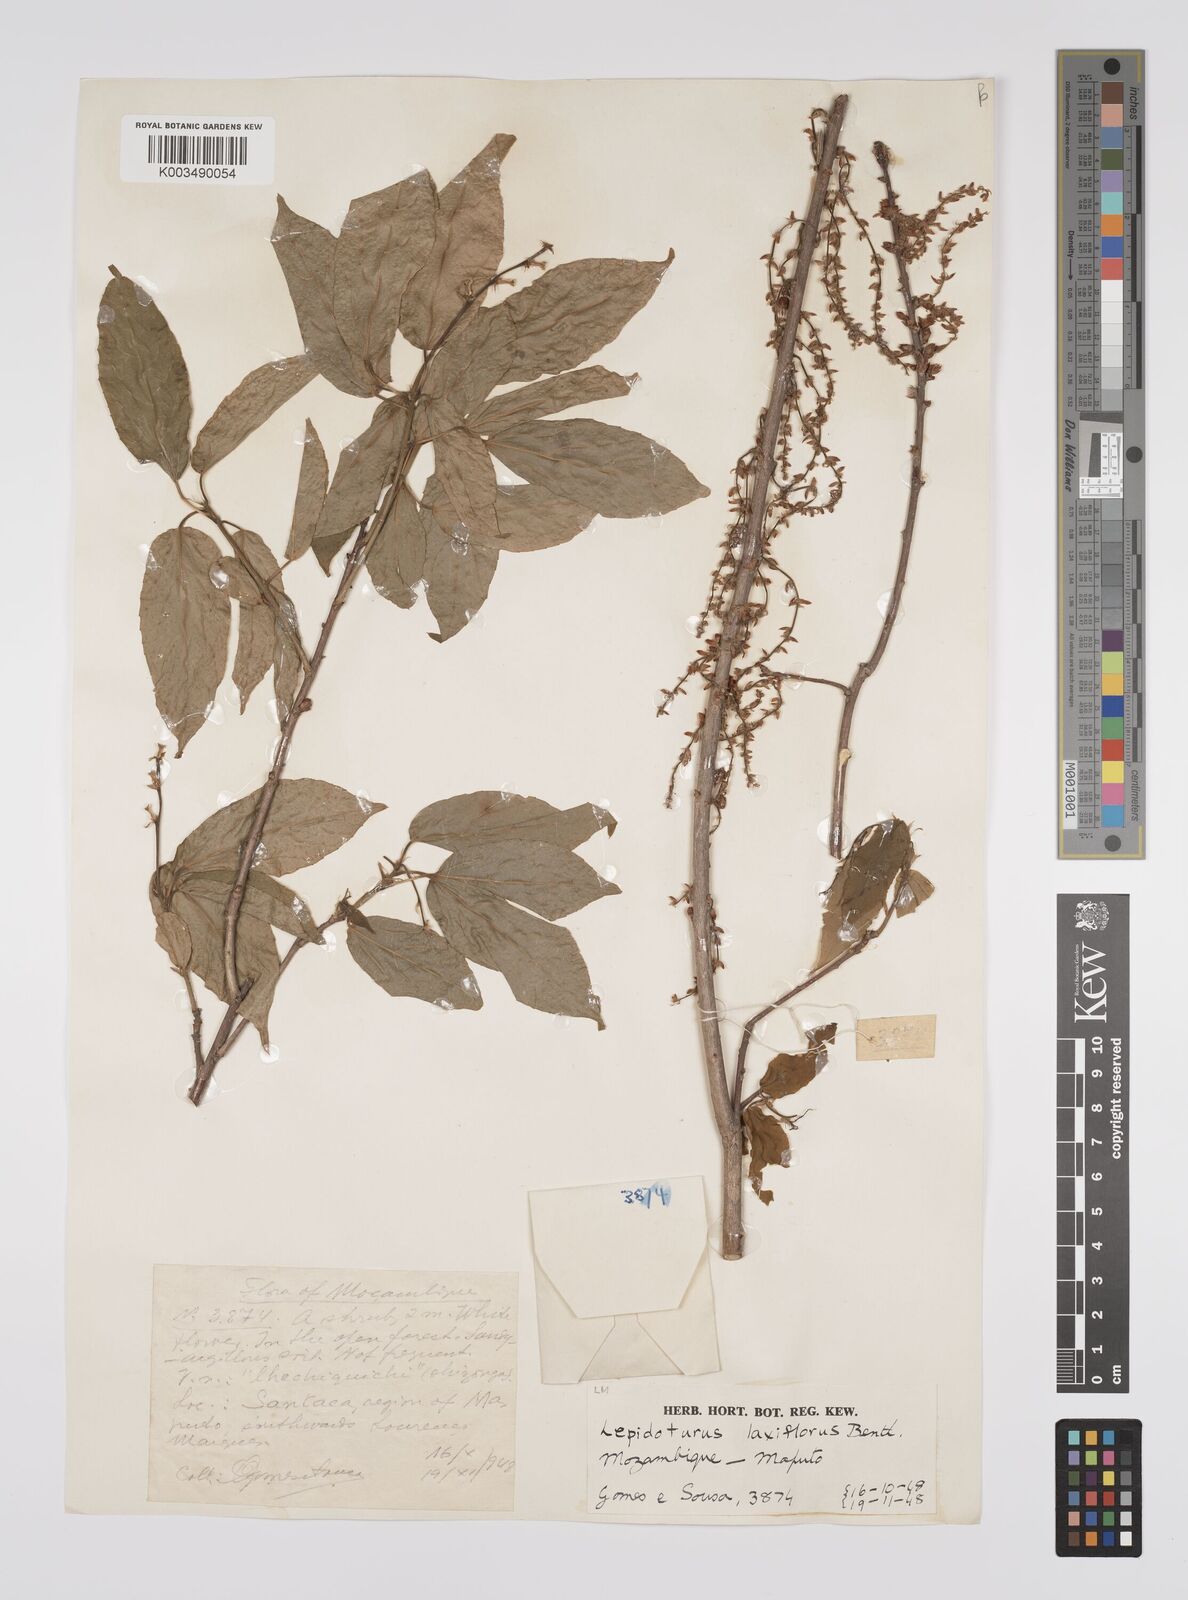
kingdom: Plantae
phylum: Tracheophyta
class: Magnoliopsida
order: Malpighiales
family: Euphorbiaceae
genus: Alchornea
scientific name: Alchornea laxiflora
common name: Lowveld bead-string
